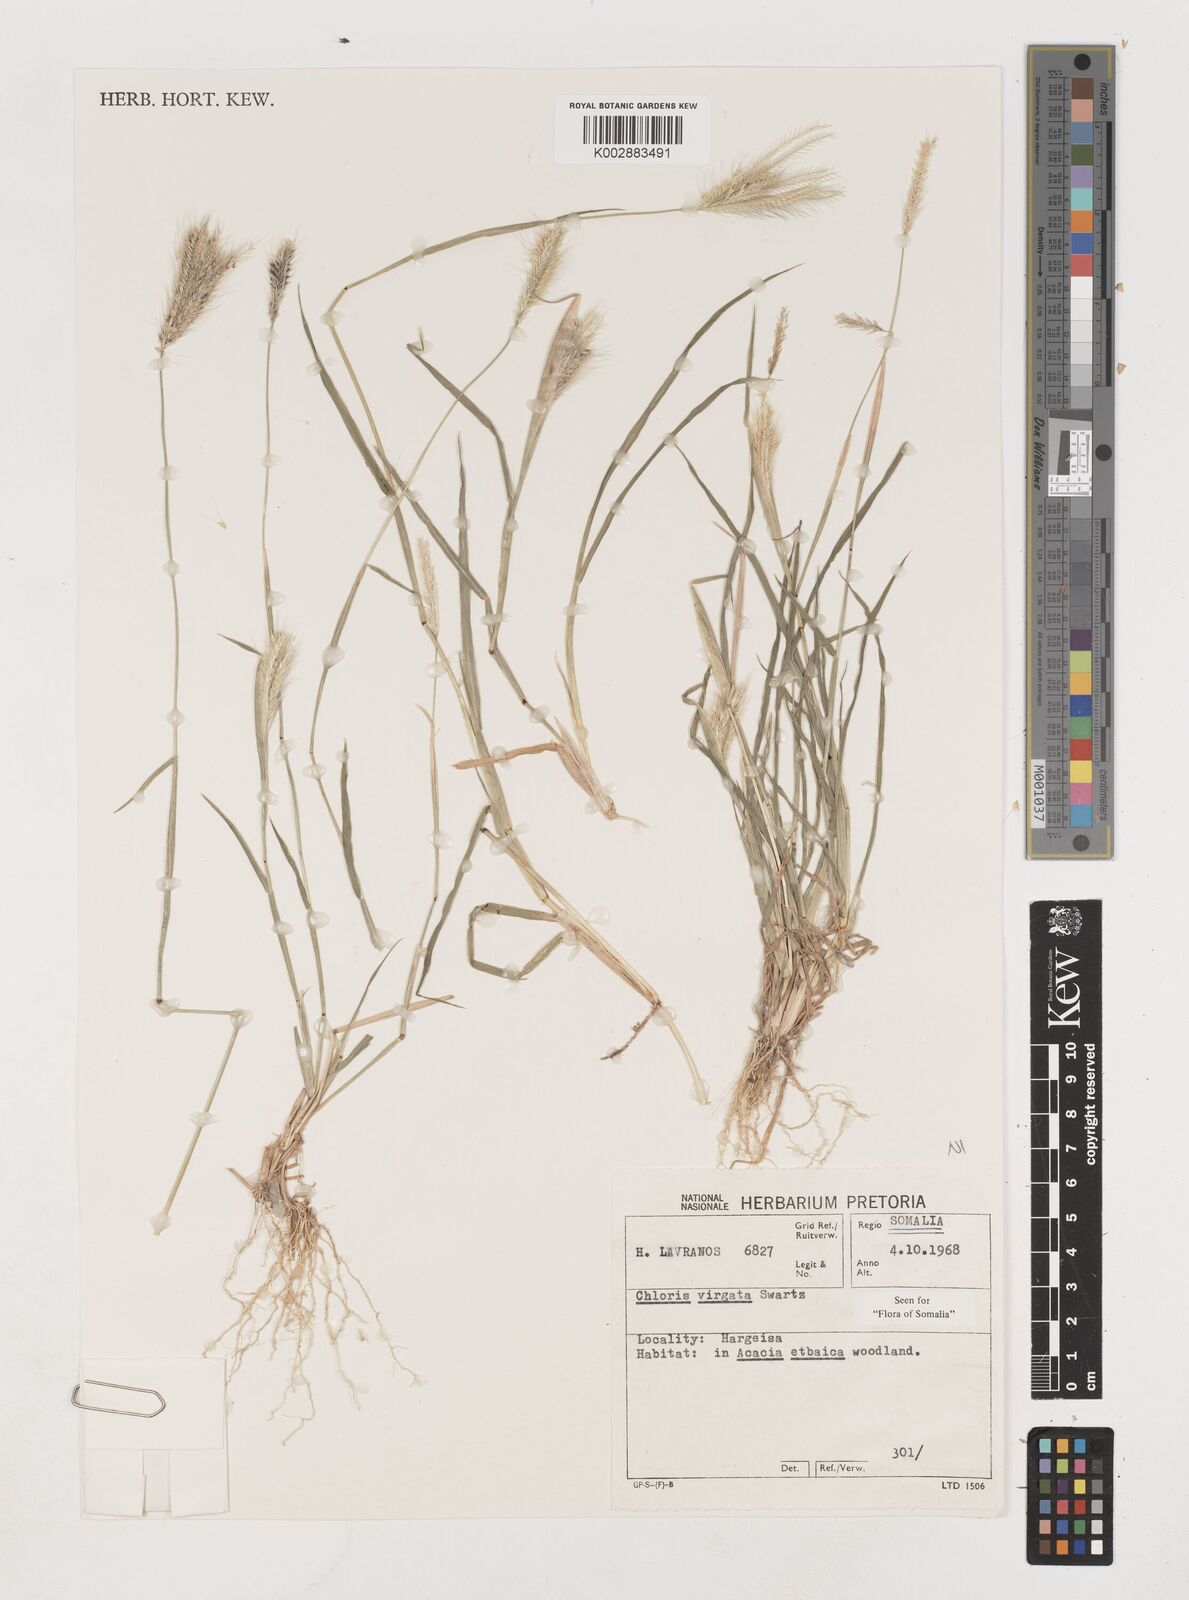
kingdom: Plantae
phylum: Tracheophyta
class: Liliopsida
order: Poales
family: Poaceae
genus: Chloris
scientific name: Chloris virgata
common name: Feathery rhodes-grass
